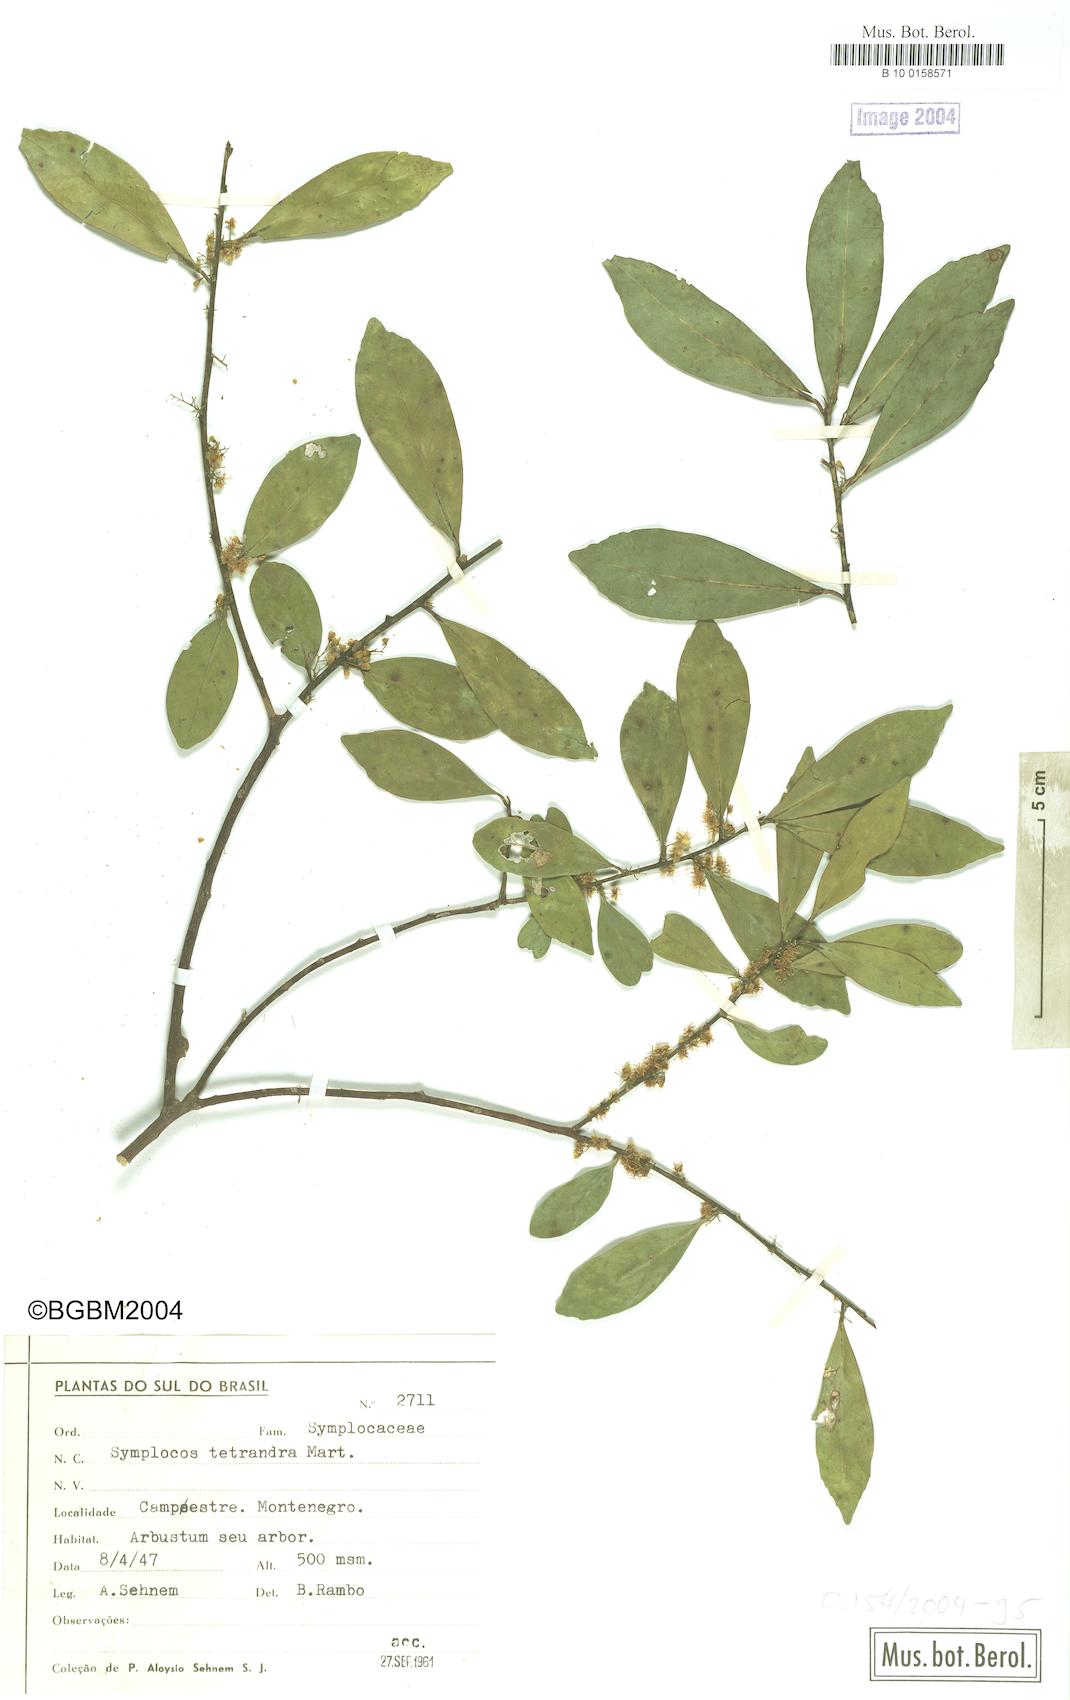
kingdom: Plantae
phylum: Tracheophyta
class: Magnoliopsida
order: Ericales
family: Symplocaceae
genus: Symplocos
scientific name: Symplocos tetrandra
